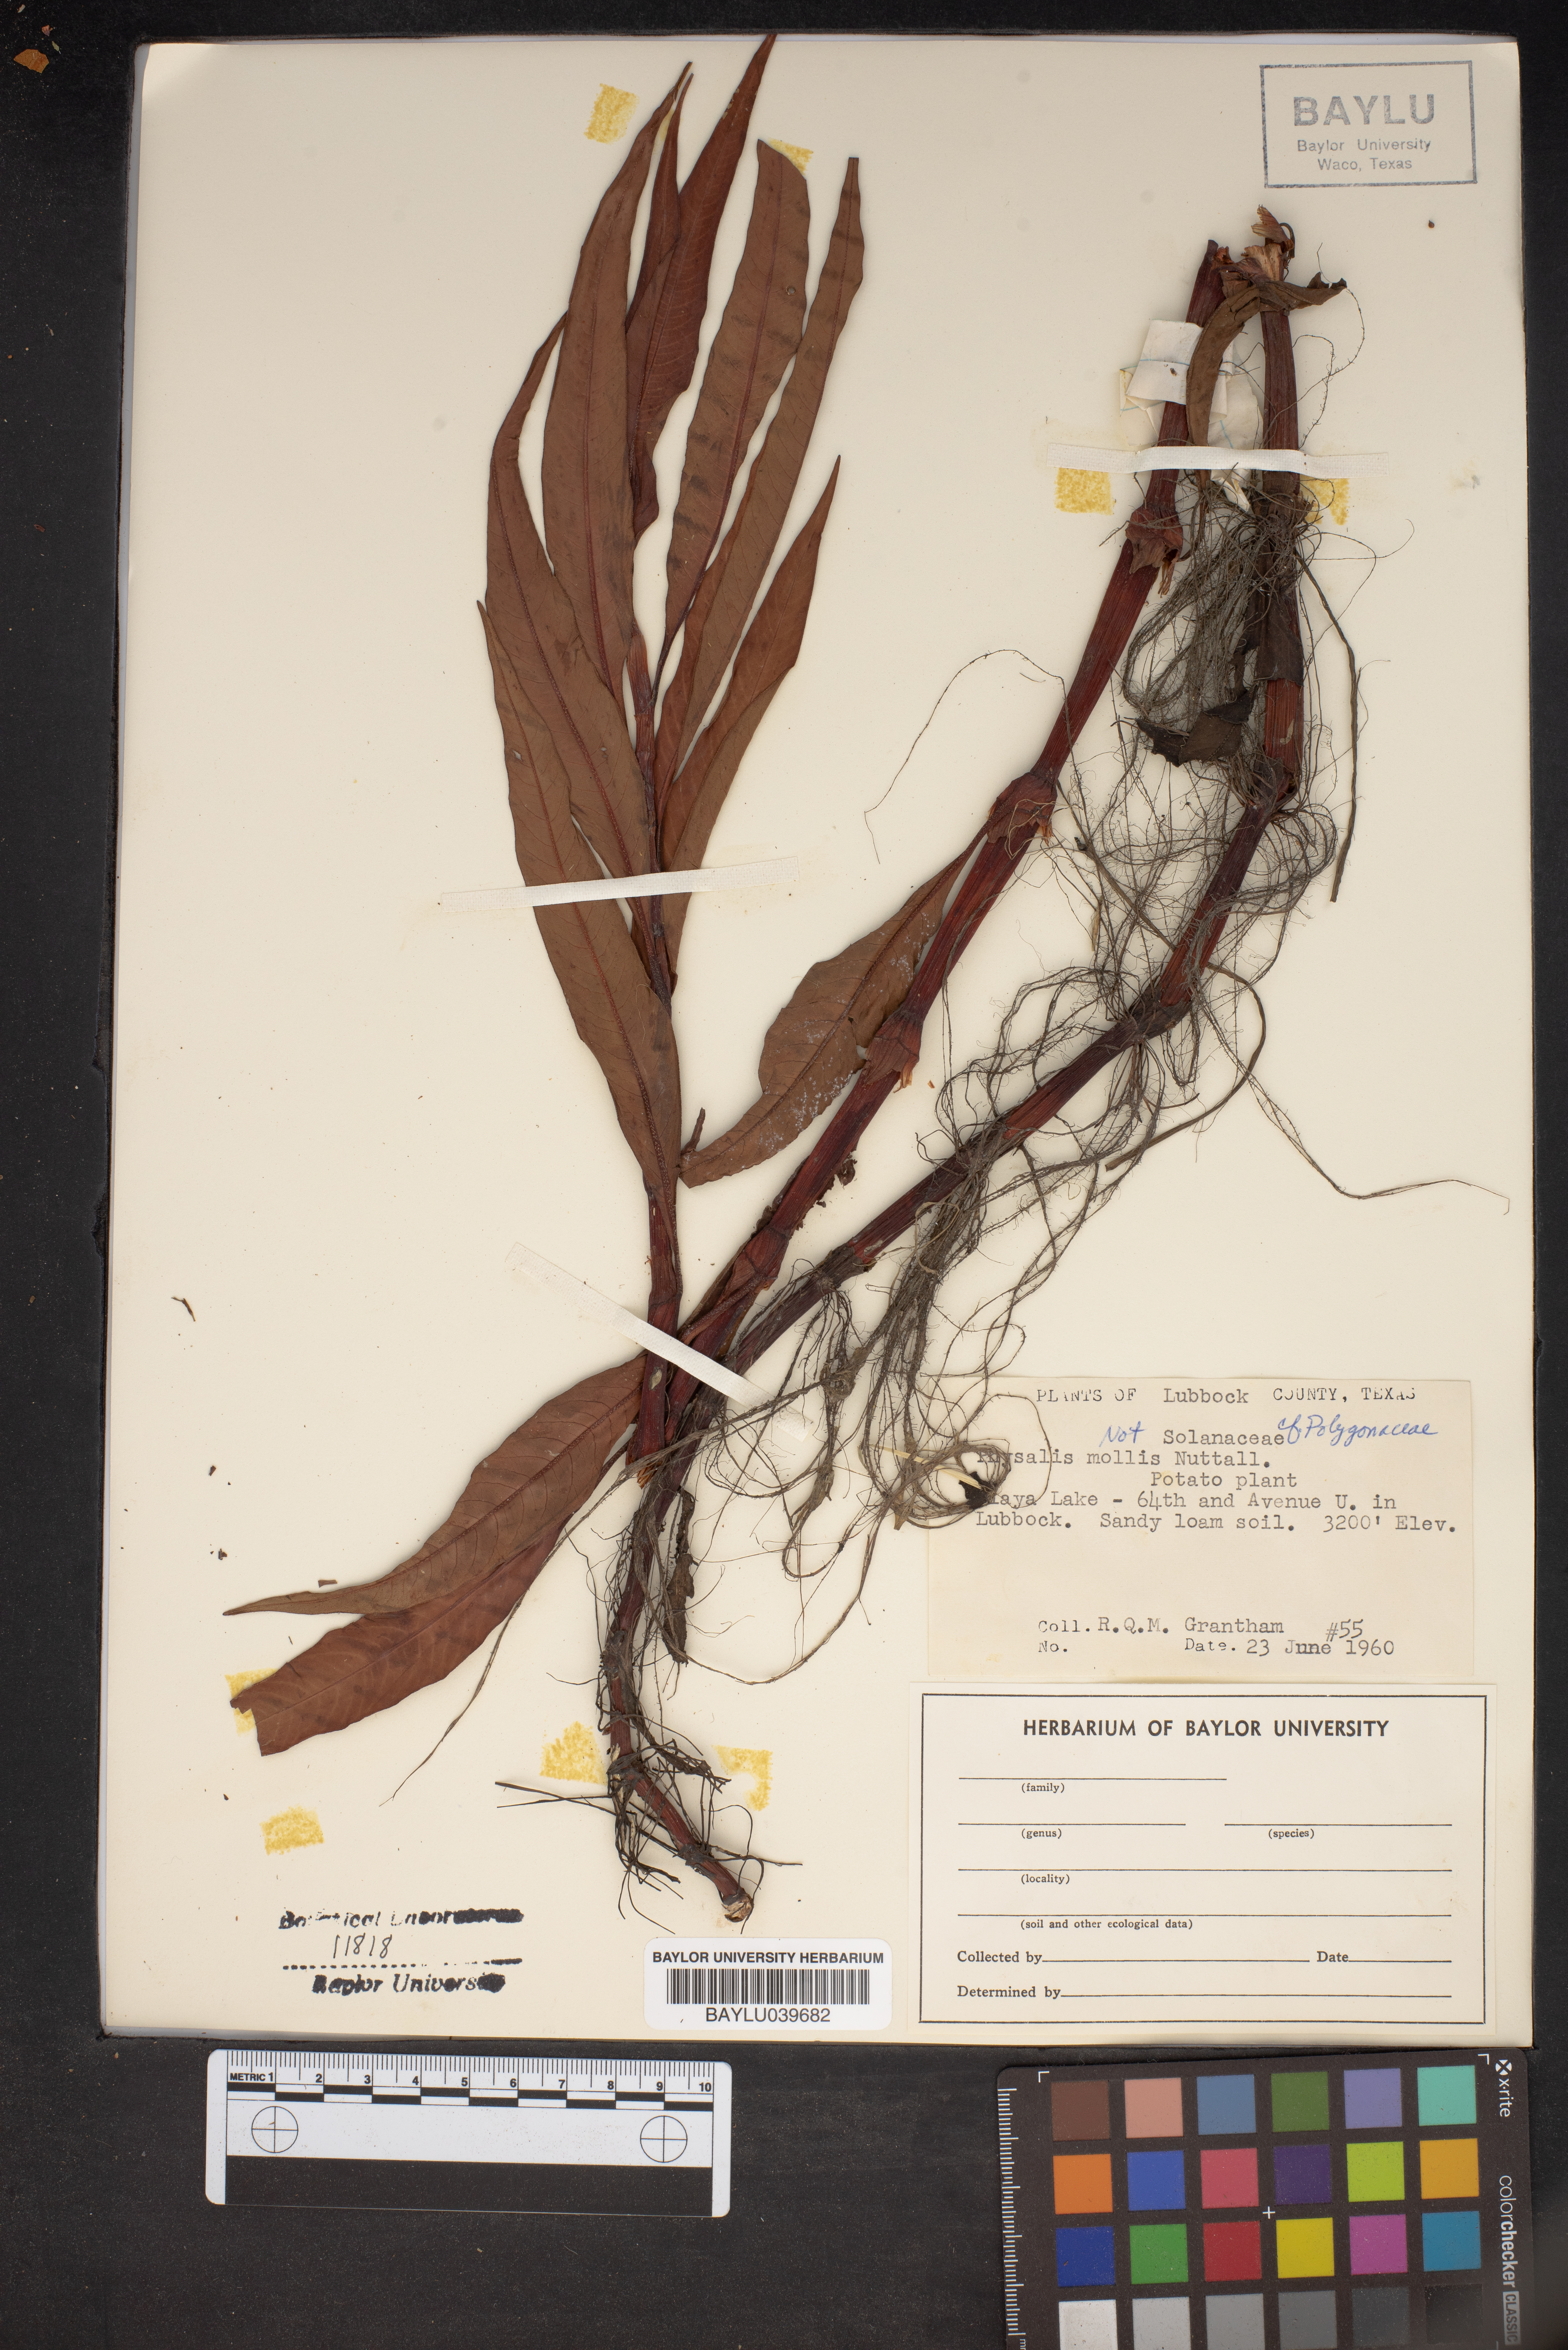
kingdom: Plantae
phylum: Tracheophyta
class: Magnoliopsida
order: Solanales
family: Solanaceae
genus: Physalis
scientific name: Physalis mollis
